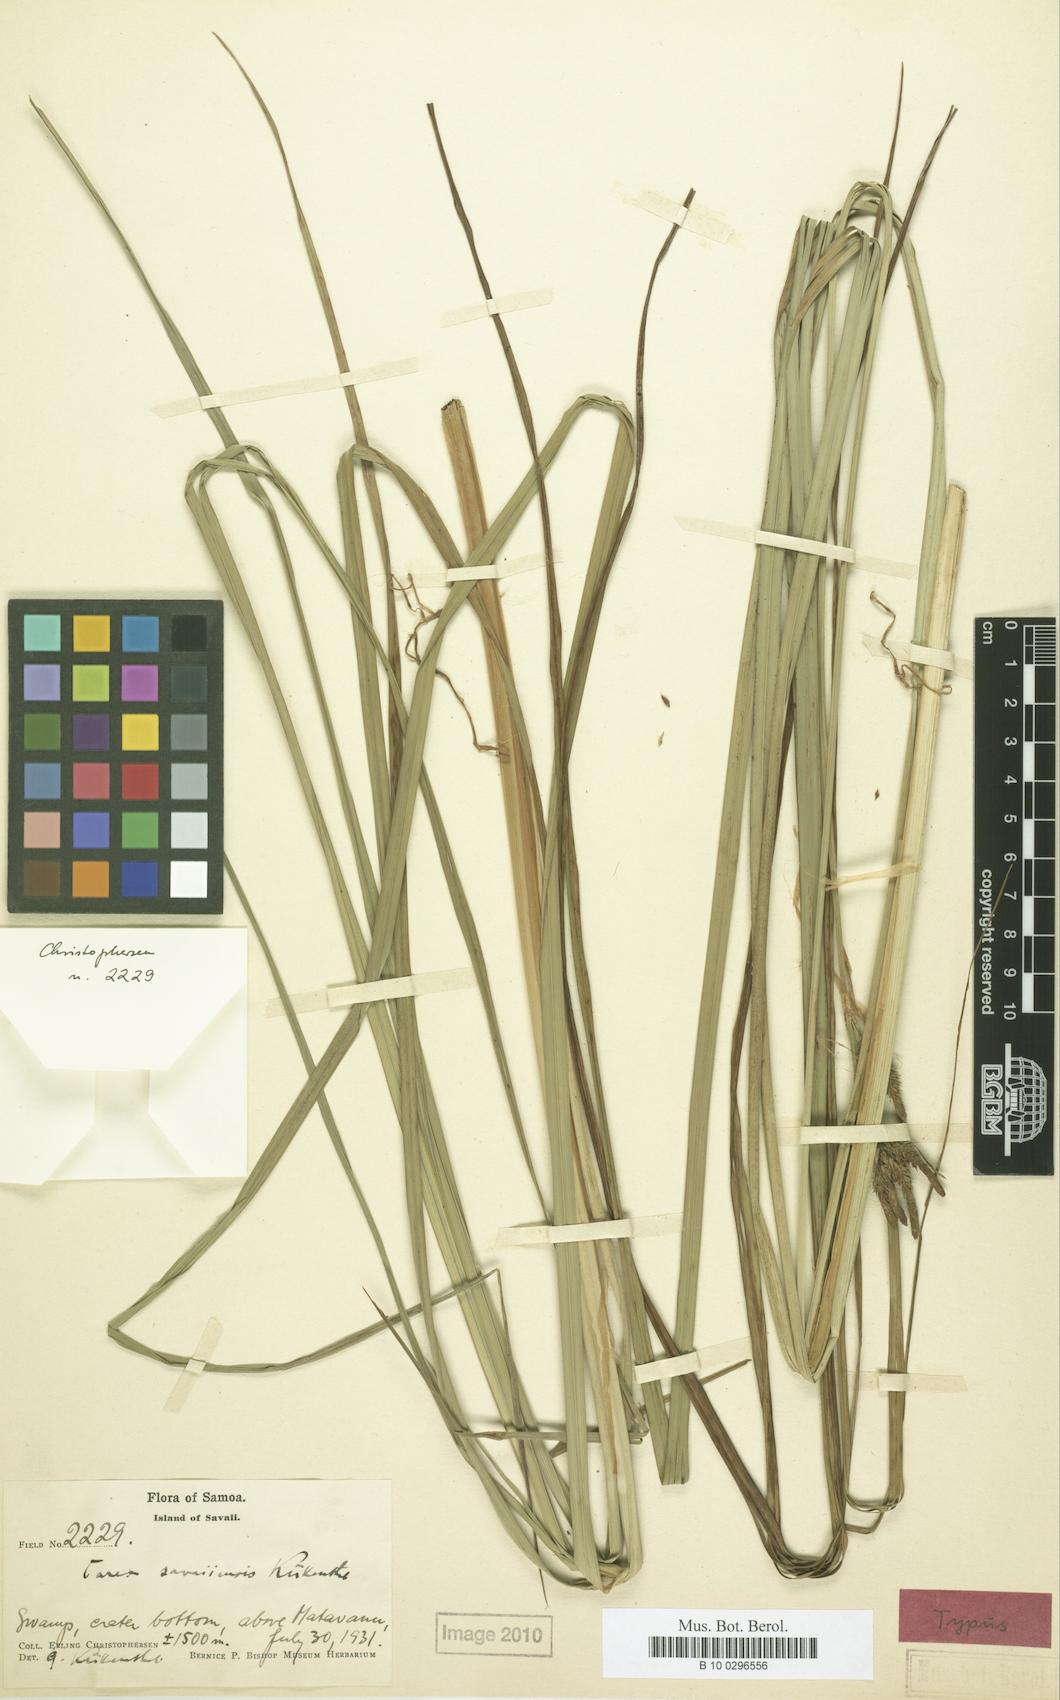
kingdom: Plantae
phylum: Tracheophyta
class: Liliopsida
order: Poales
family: Cyperaceae
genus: Carex
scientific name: Carex savaiiensis
